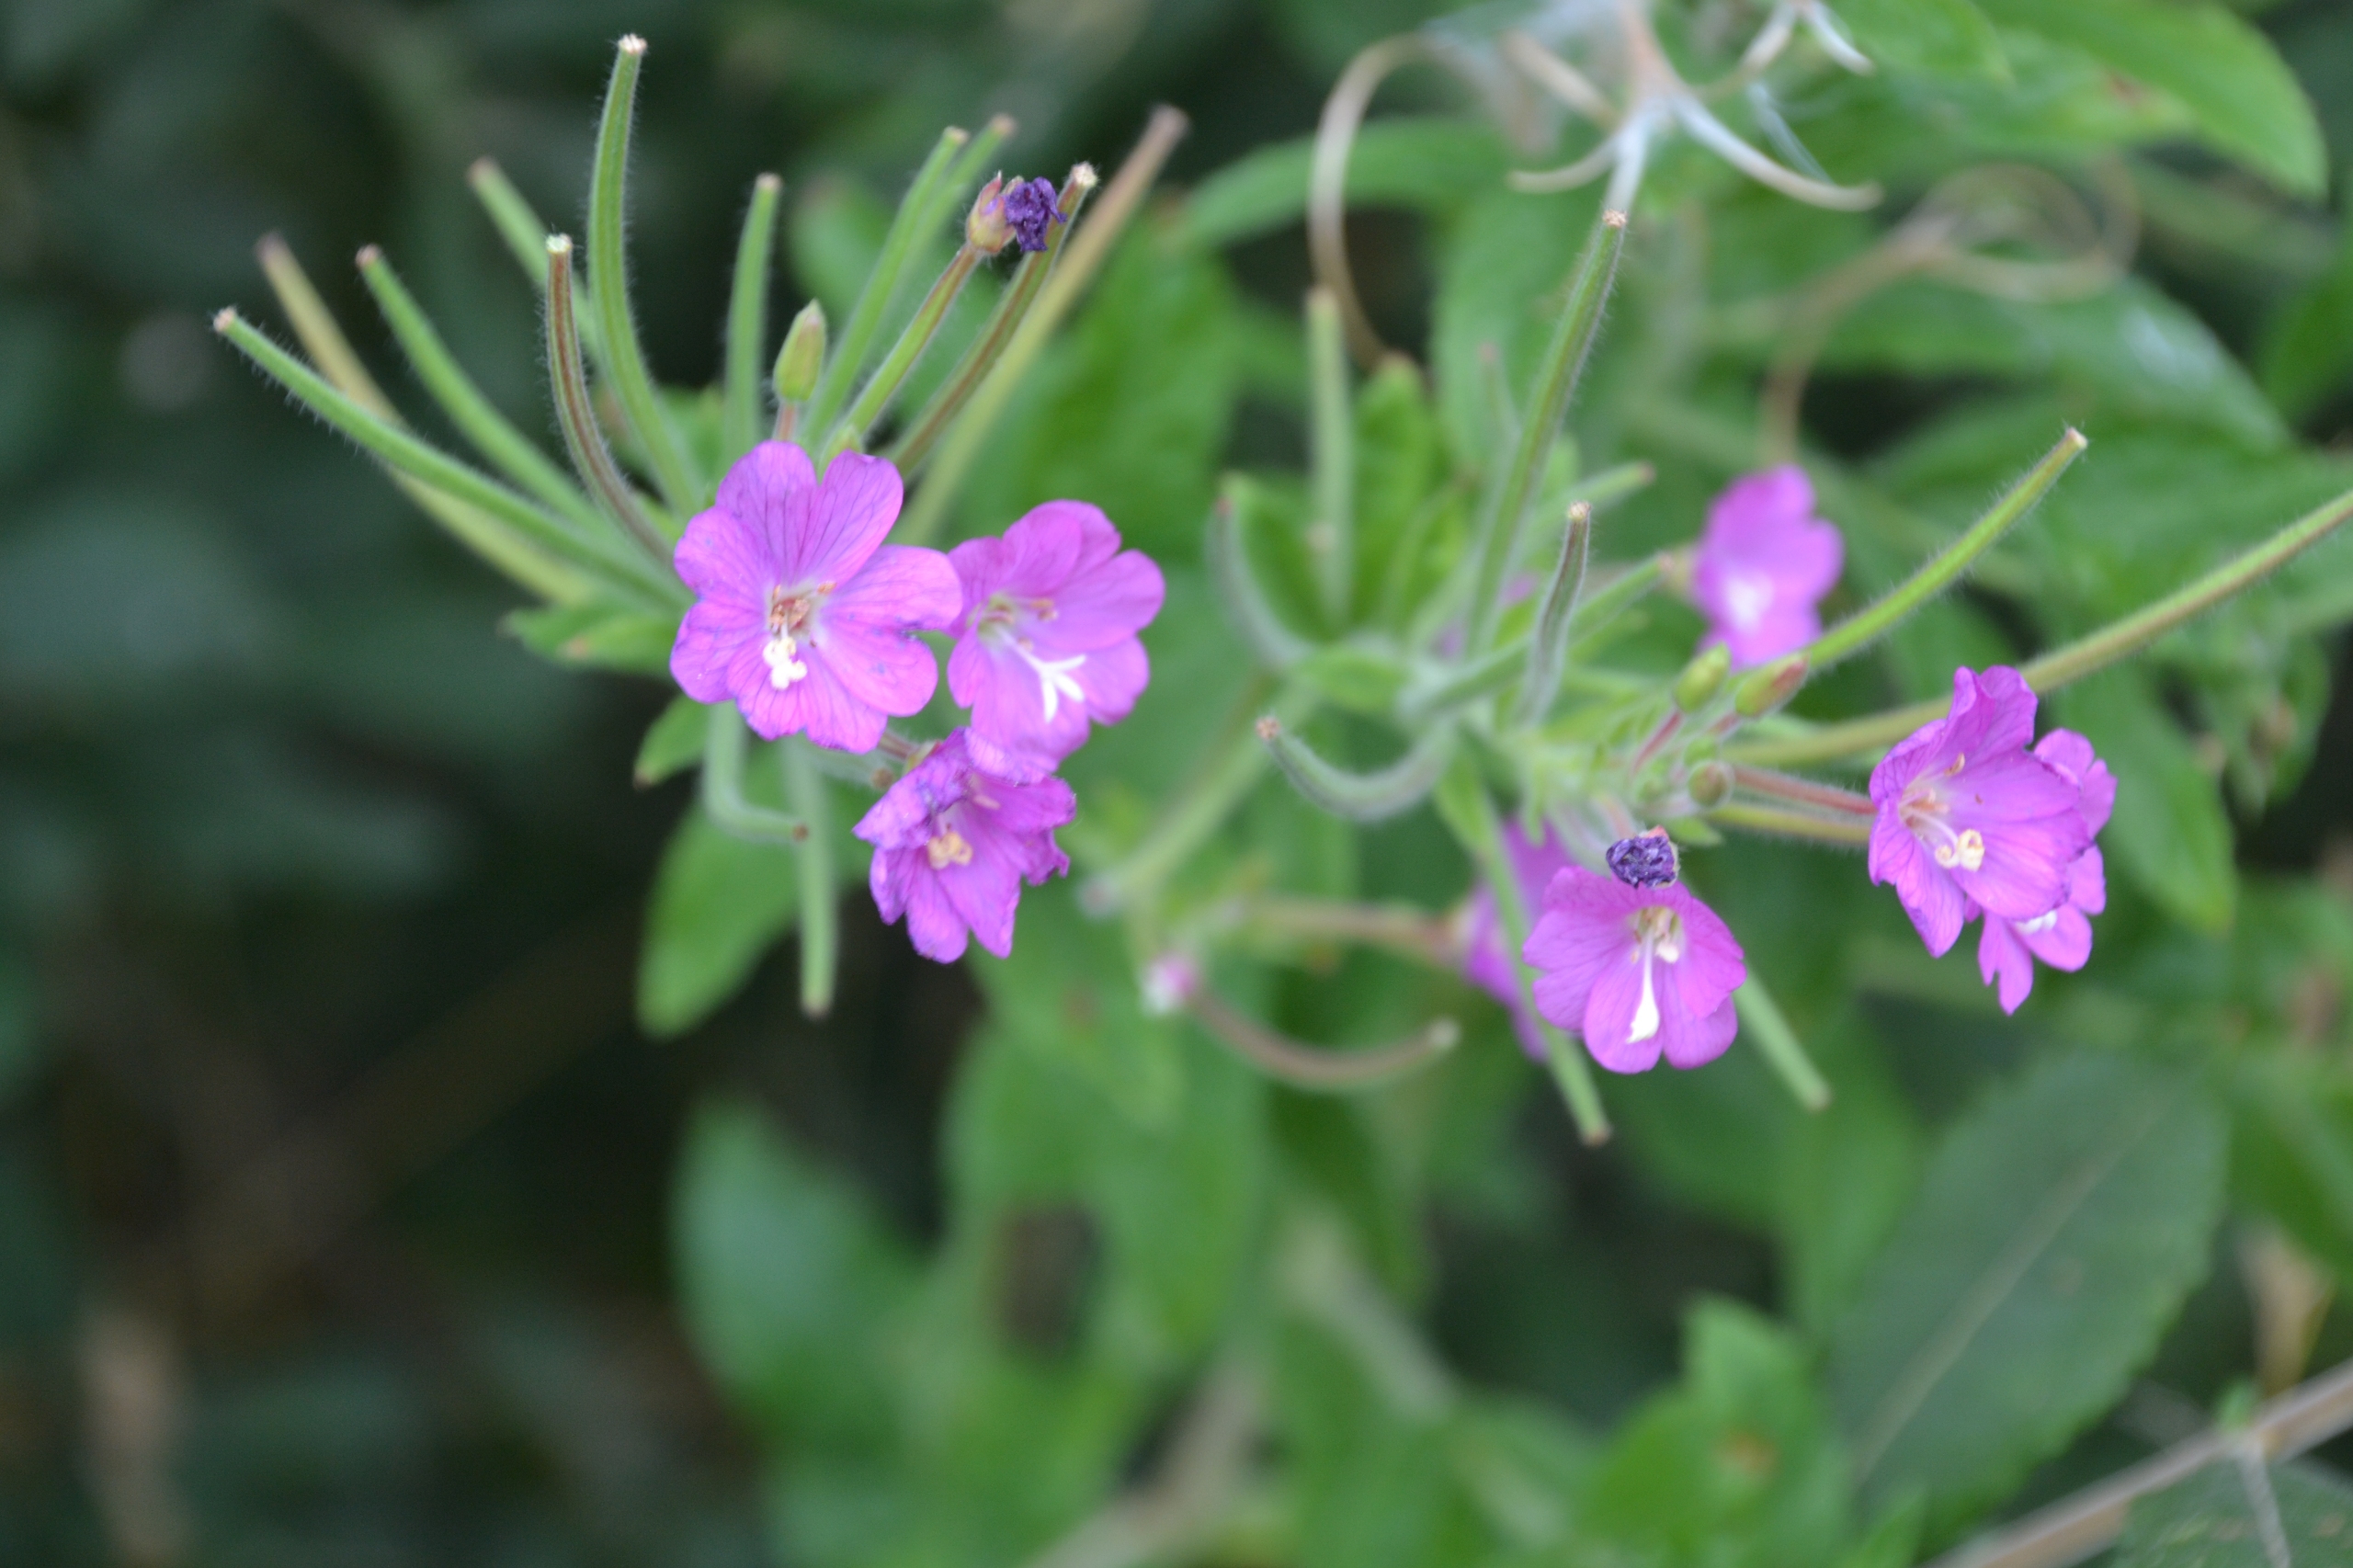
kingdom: Plantae
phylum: Tracheophyta
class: Magnoliopsida
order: Myrtales
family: Onagraceae
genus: Epilobium
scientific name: Epilobium hirsutum
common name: Lådden dueurt
